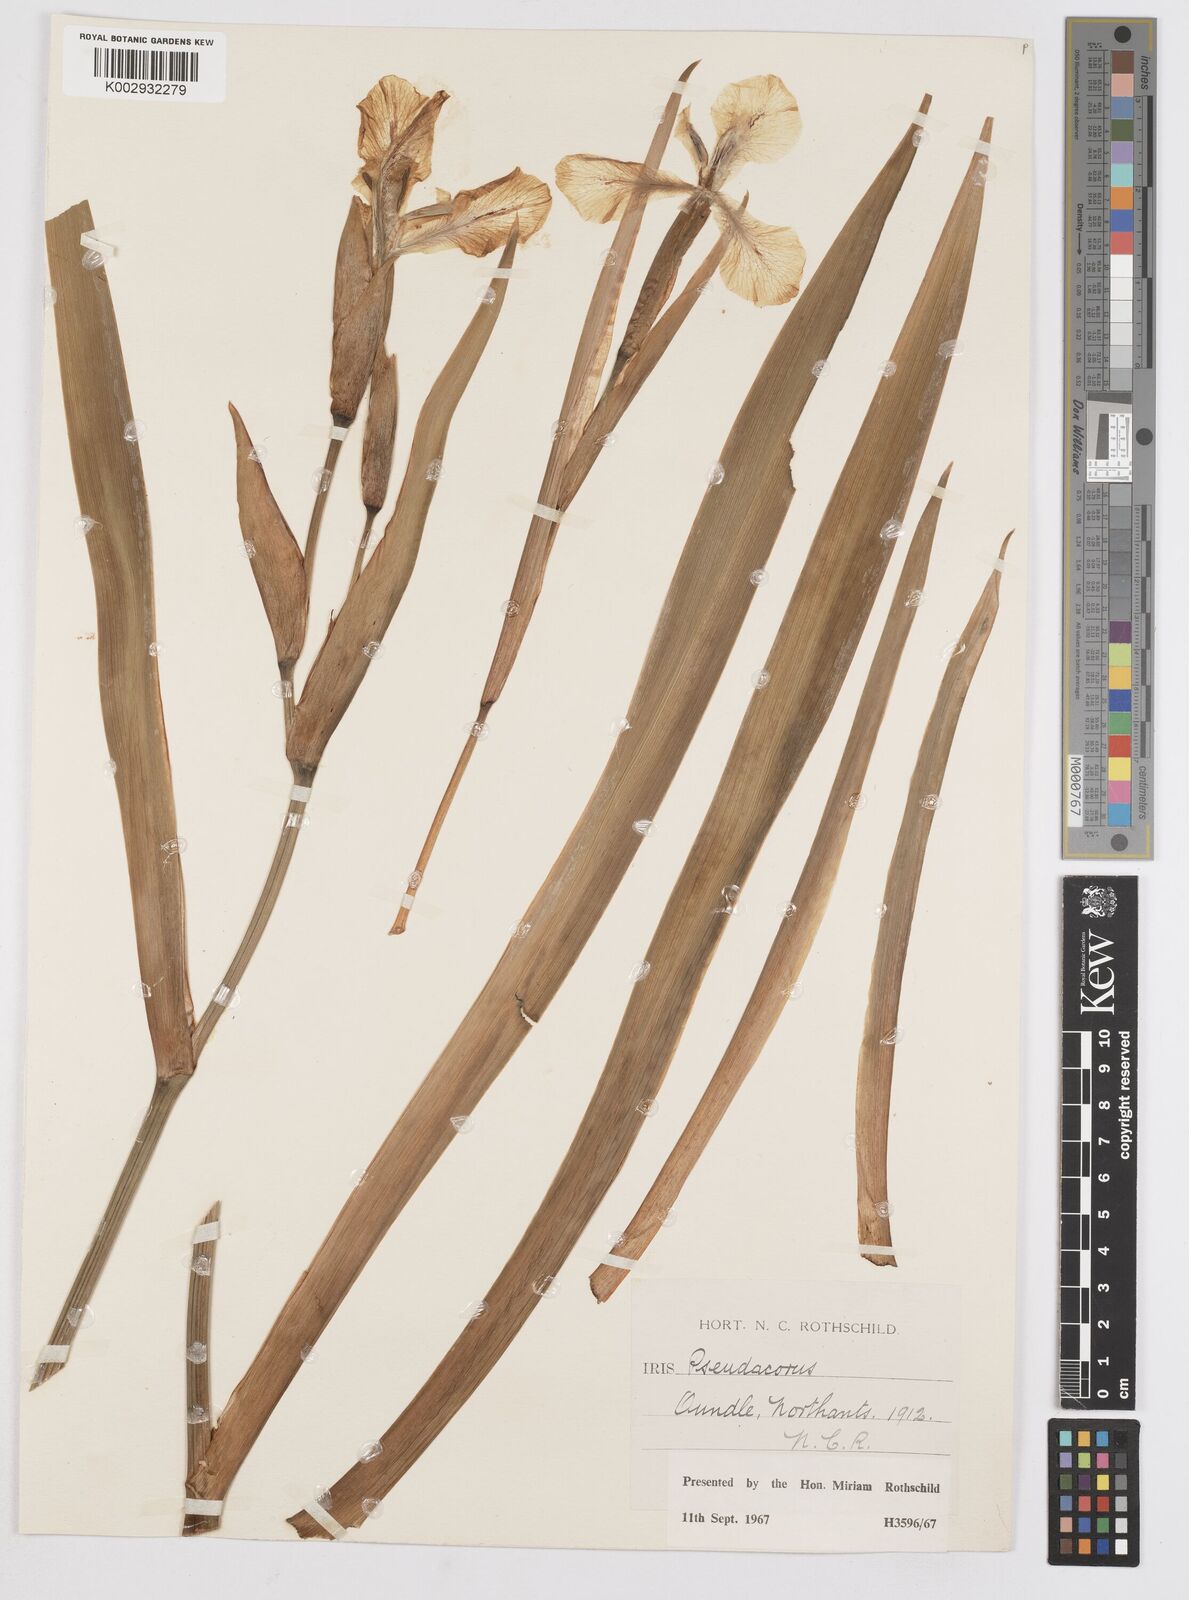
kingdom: Plantae
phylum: Tracheophyta
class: Liliopsida
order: Asparagales
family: Iridaceae
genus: Iris
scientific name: Iris
